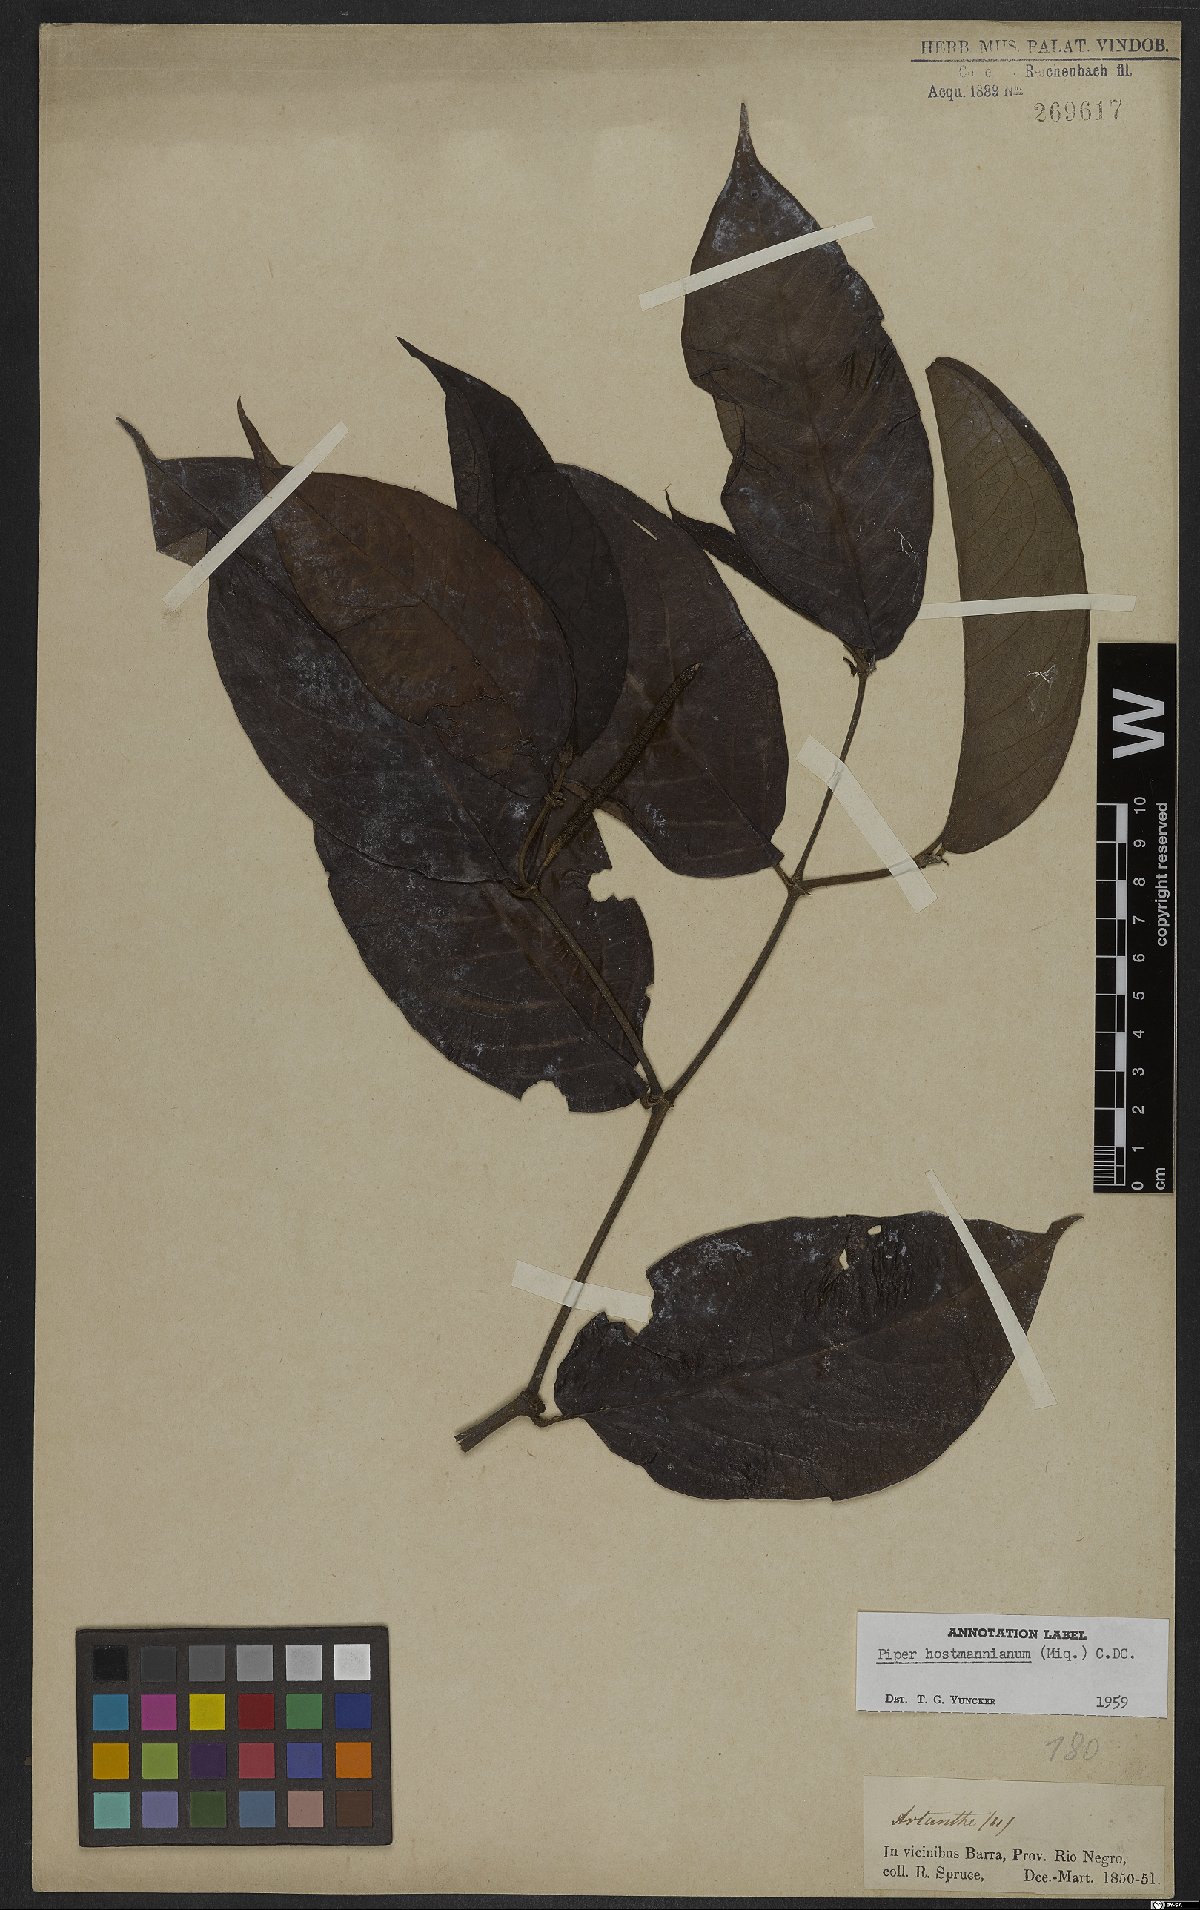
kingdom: Plantae
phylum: Tracheophyta
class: Magnoliopsida
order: Piperales
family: Piperaceae
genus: Piper
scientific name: Piper hostmannianum
